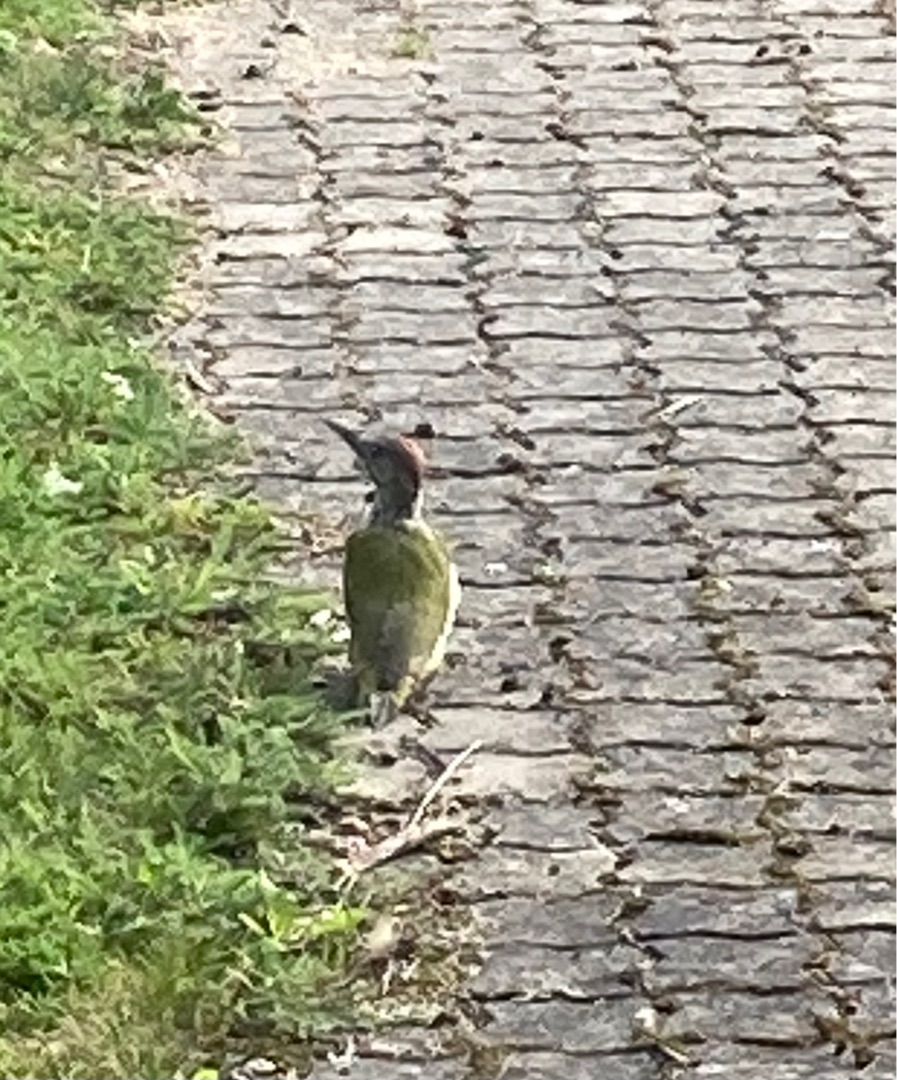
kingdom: Animalia
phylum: Chordata
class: Aves
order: Piciformes
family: Picidae
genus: Picus
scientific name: Picus viridis
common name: Grønspætte
